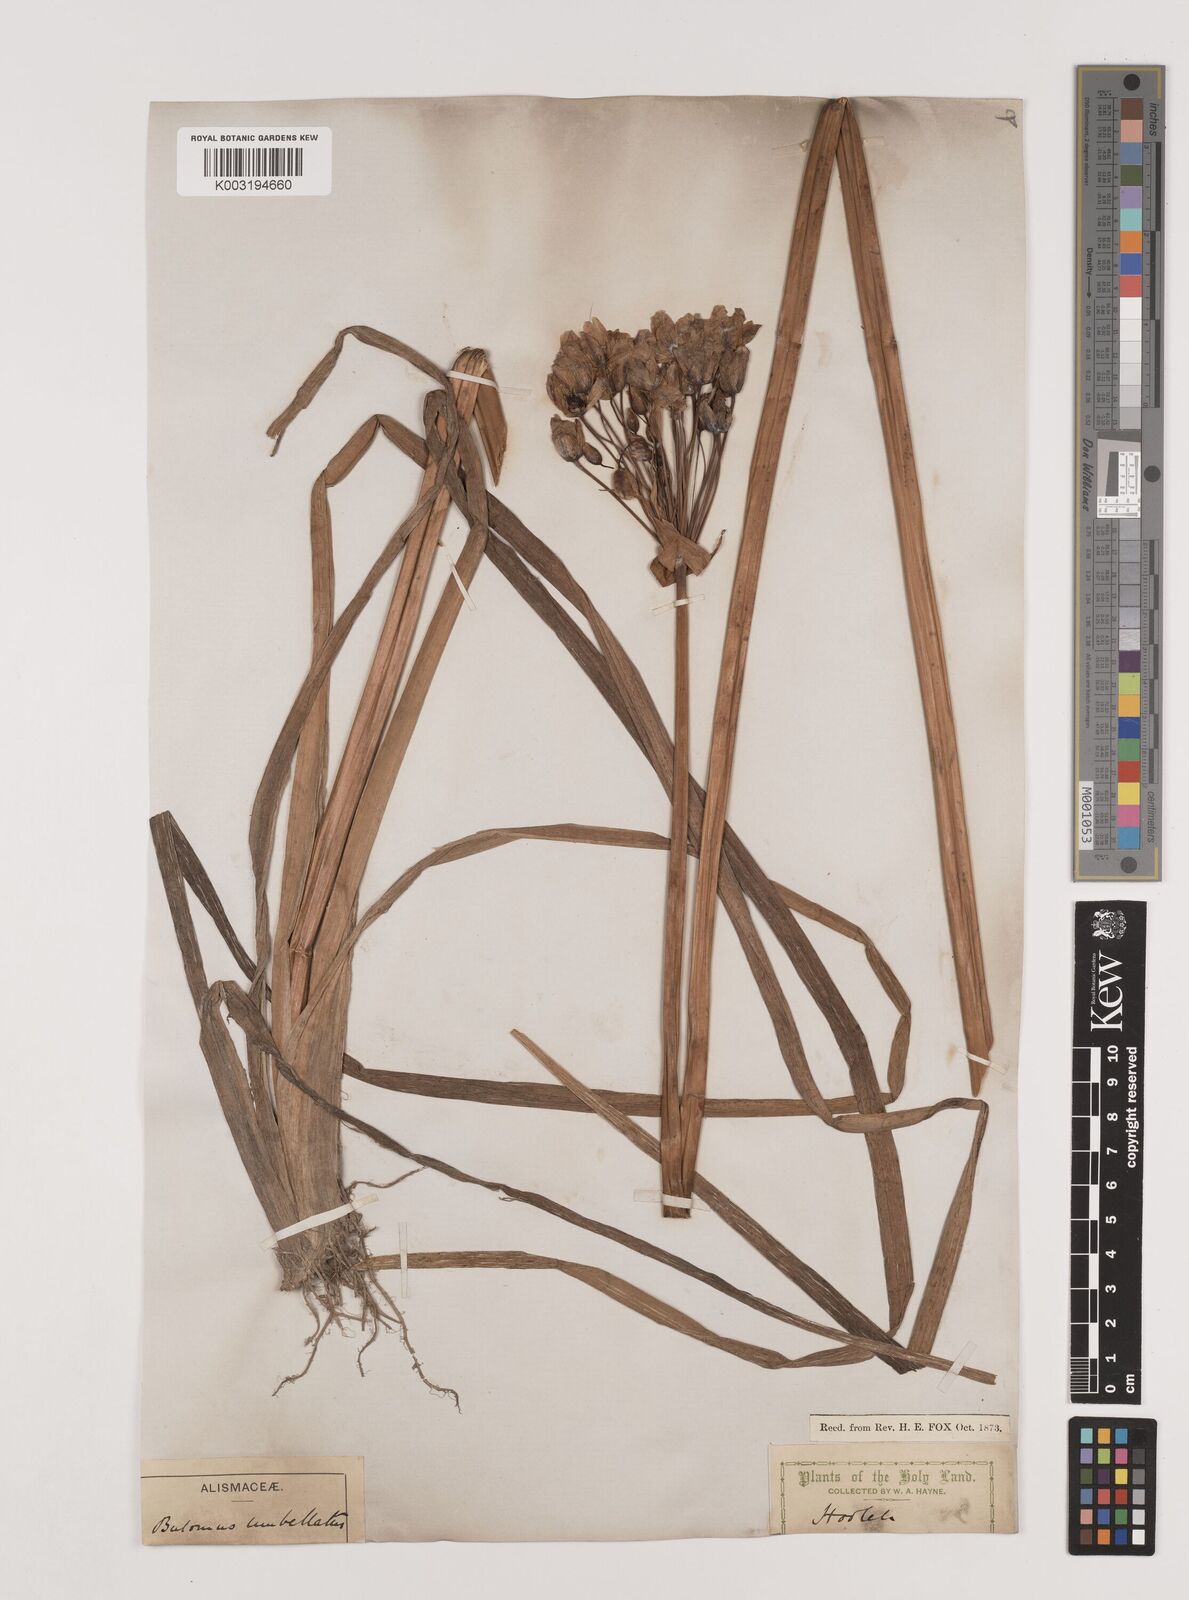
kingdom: Plantae
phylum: Tracheophyta
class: Liliopsida
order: Alismatales
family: Butomaceae
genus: Butomus
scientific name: Butomus
